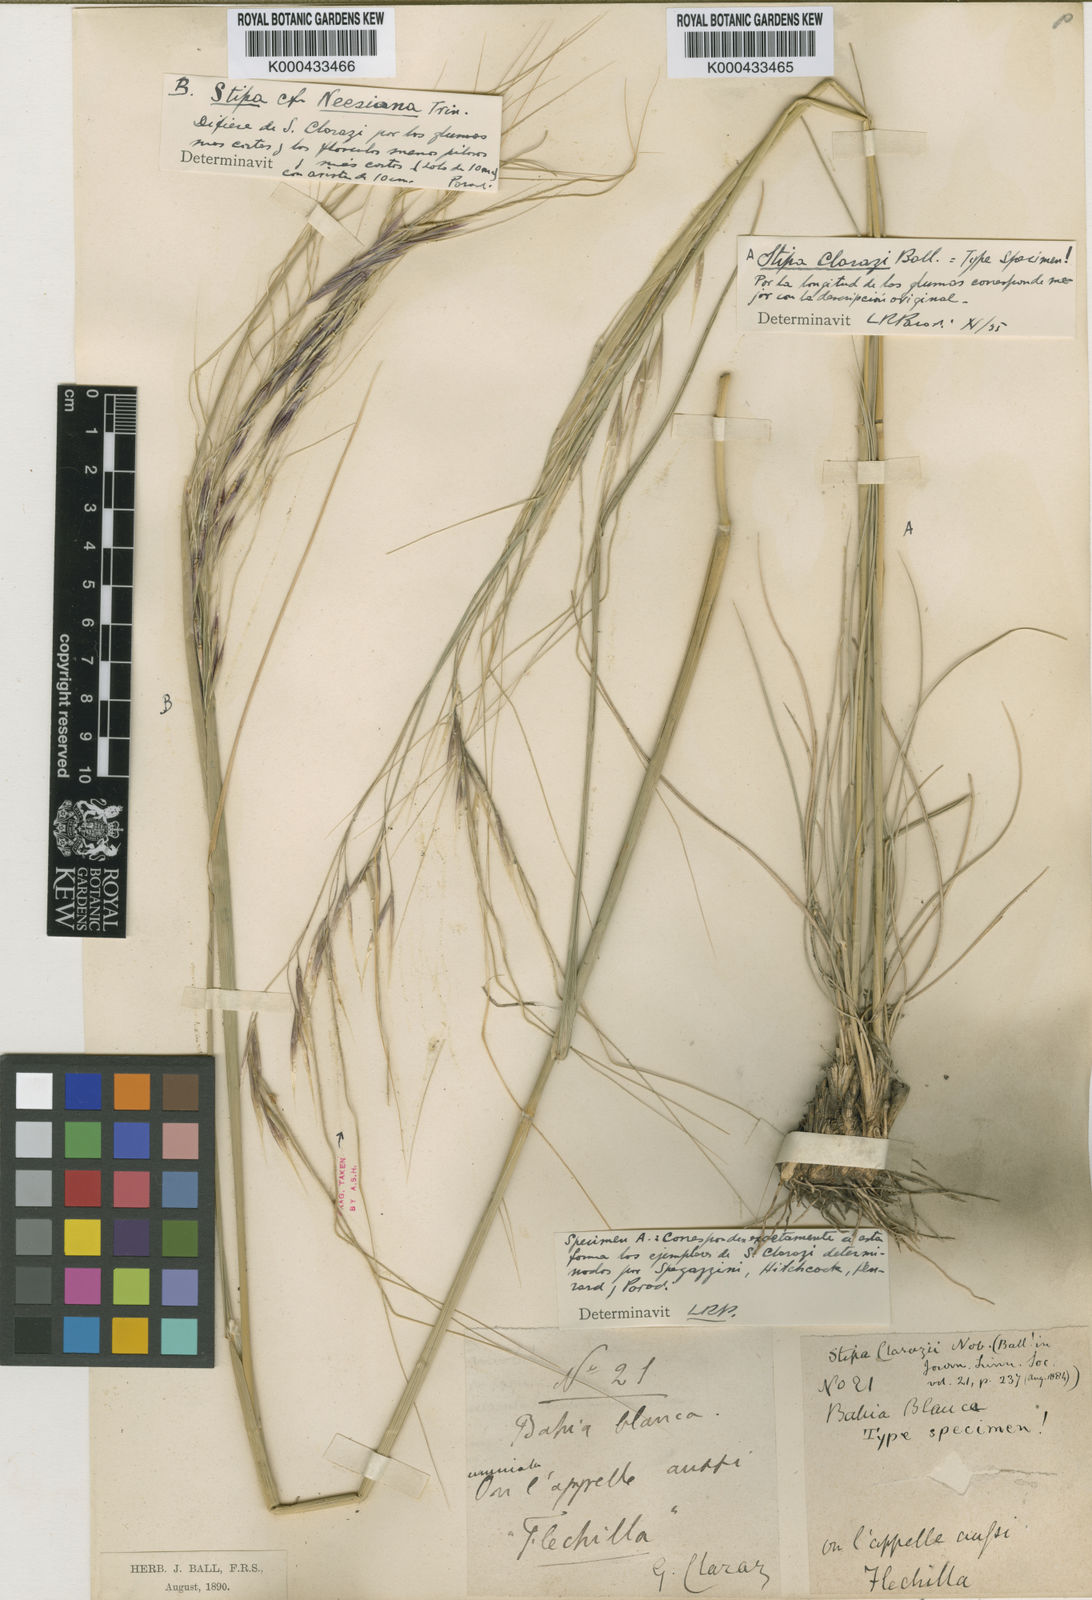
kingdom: Plantae
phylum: Tracheophyta
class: Liliopsida
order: Poales
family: Poaceae
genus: Nassella
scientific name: Nassella longiglumis
